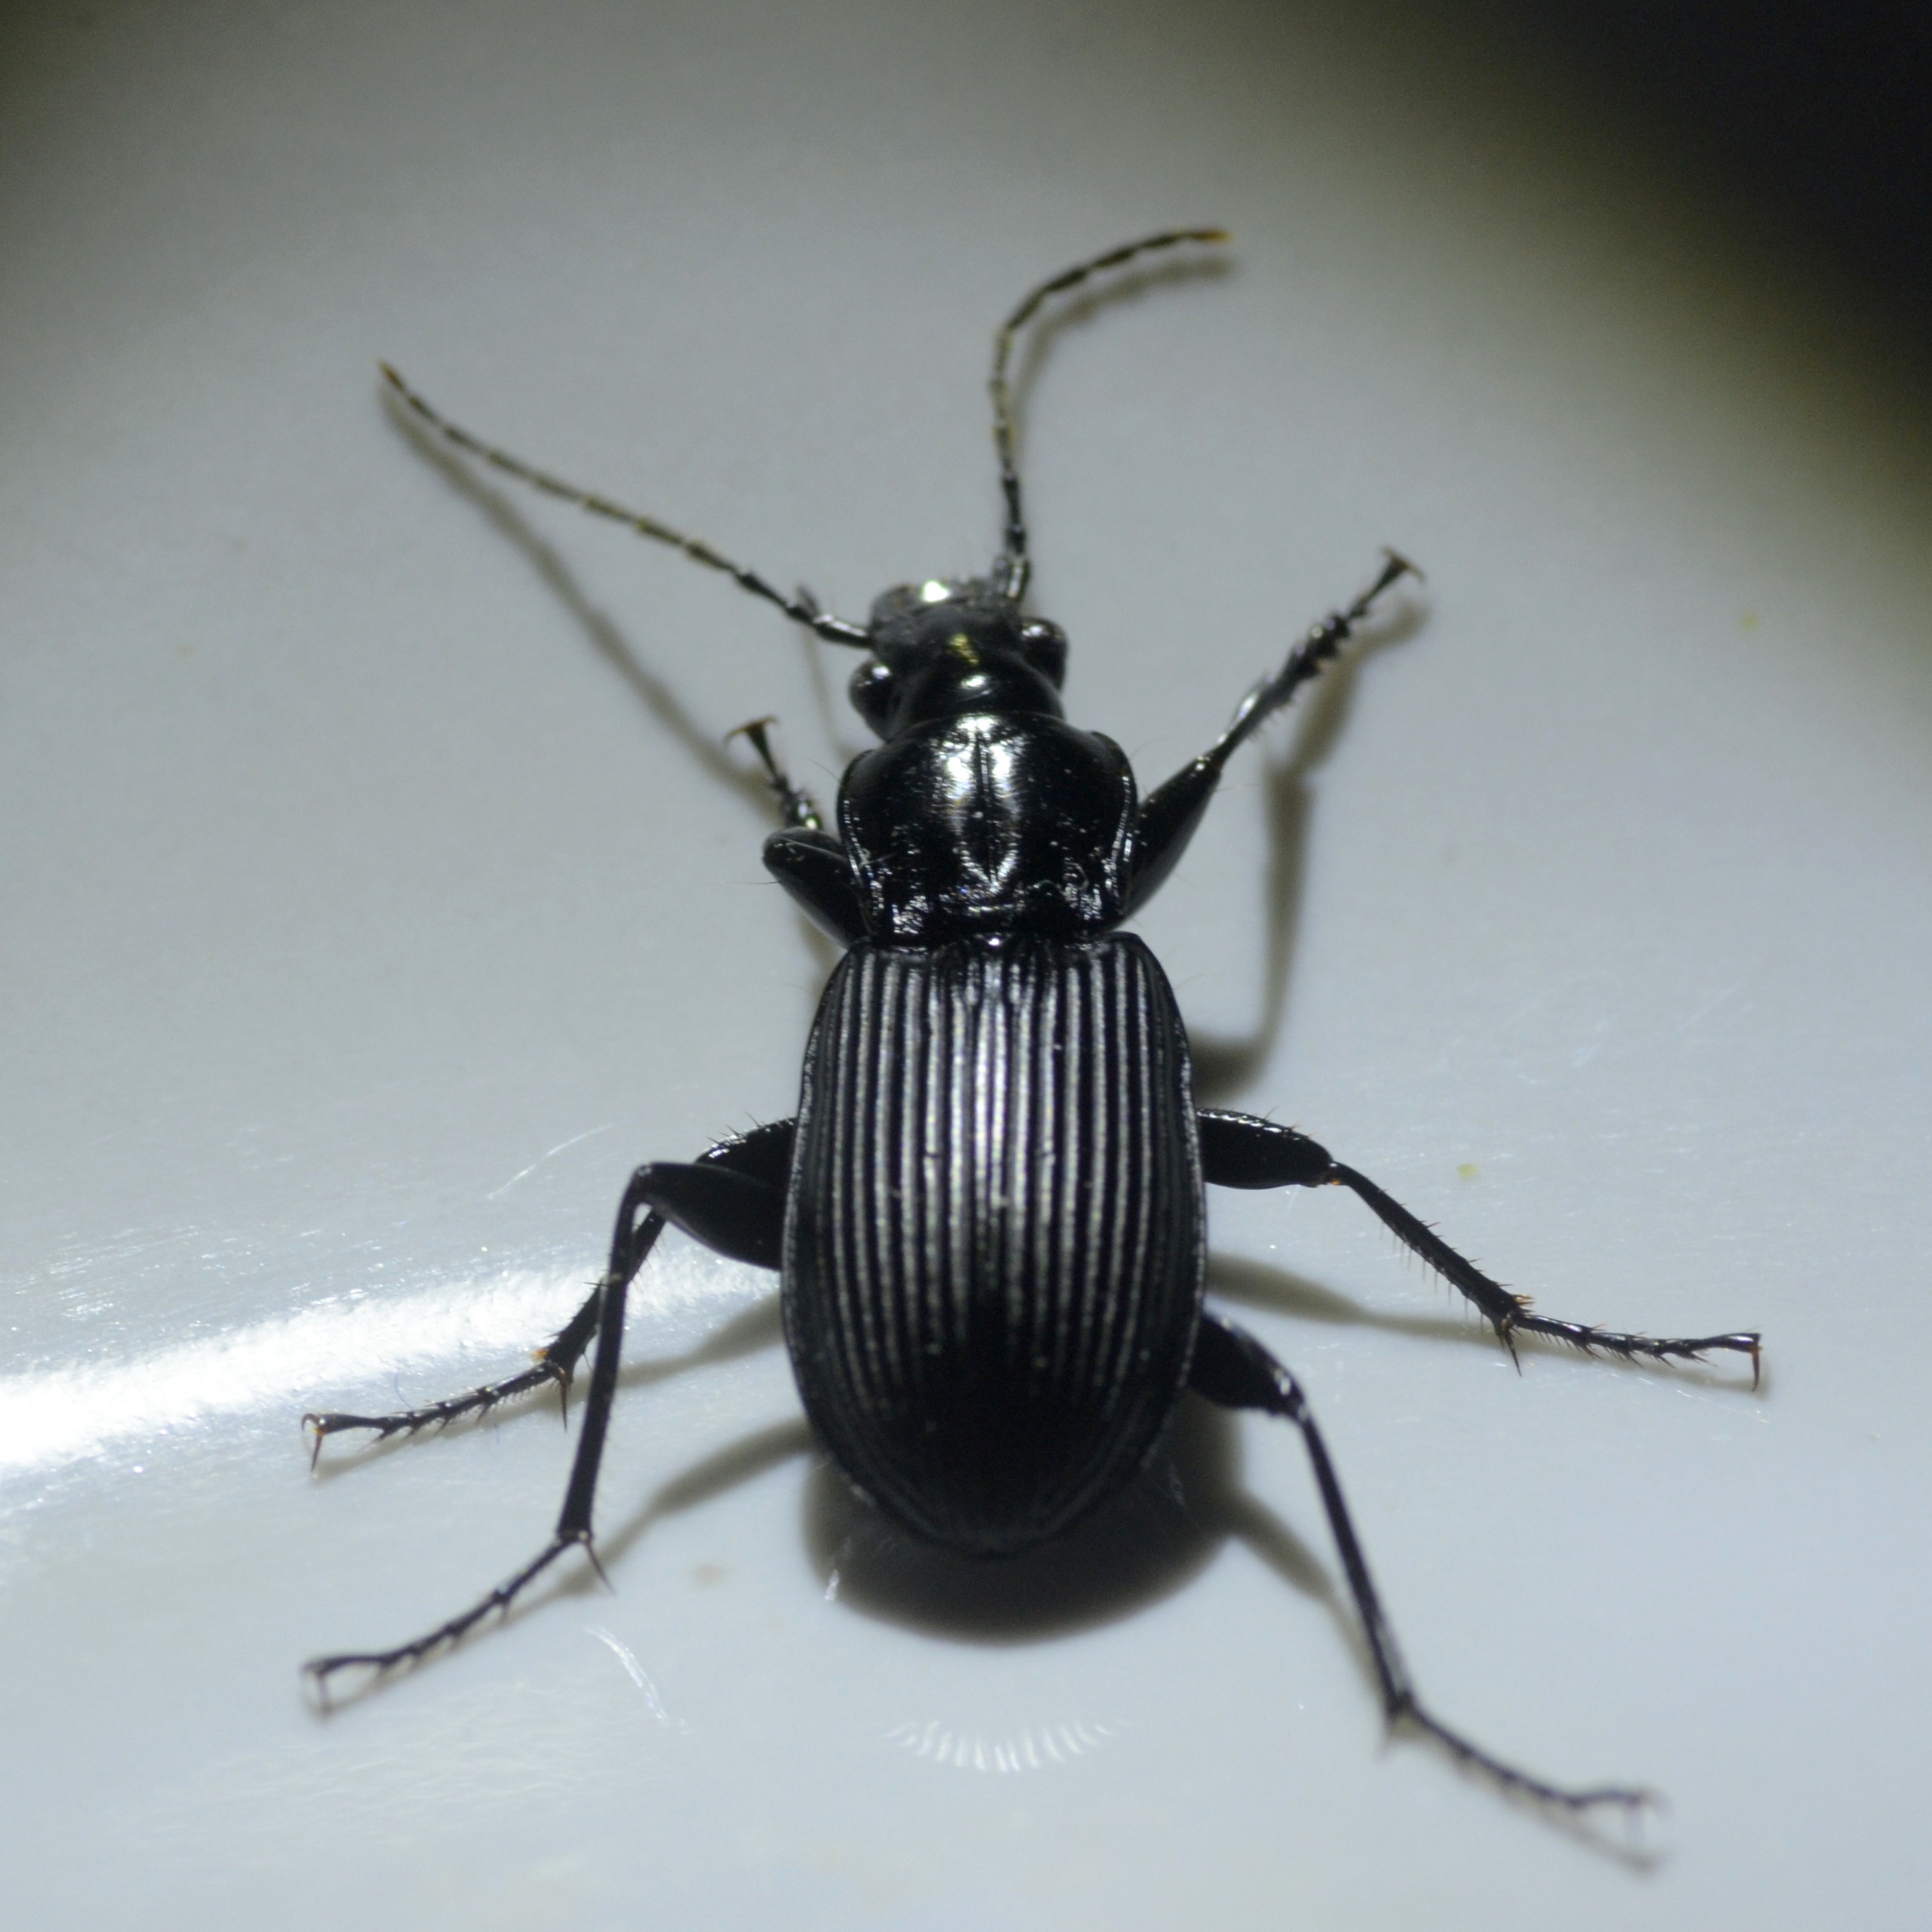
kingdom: Animalia
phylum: Arthropoda
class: Insecta
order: Coleoptera
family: Carabidae
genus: Pterostichus
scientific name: Pterostichus niger
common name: Skovjordløber
